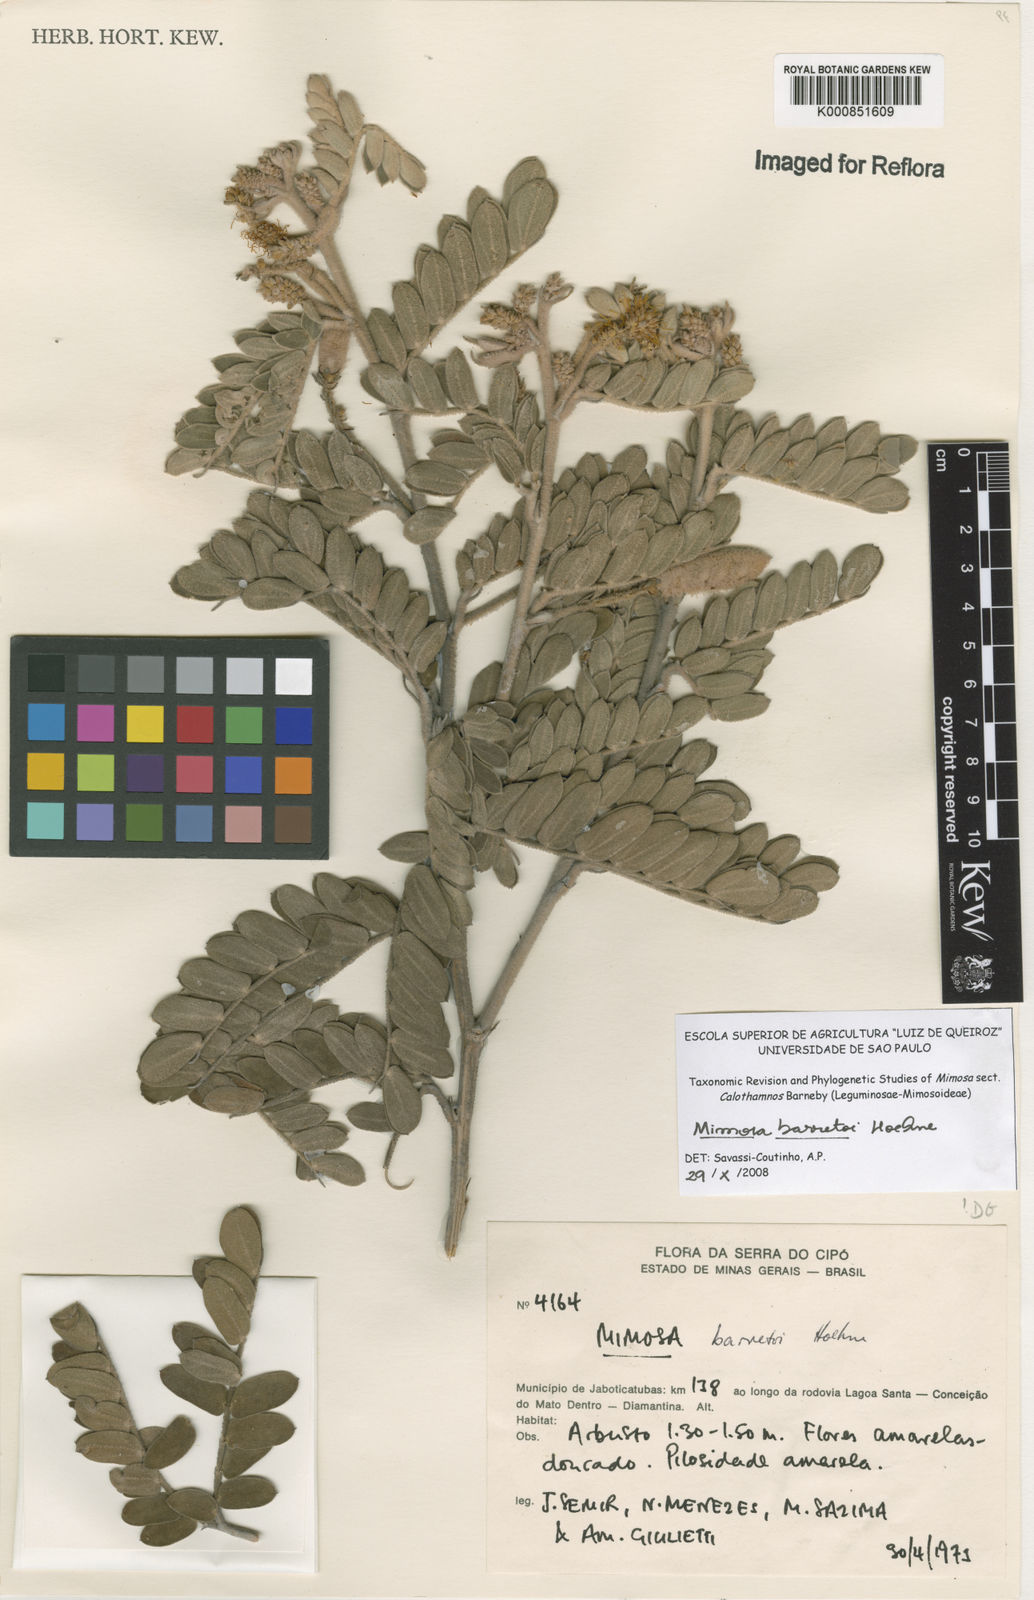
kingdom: Plantae
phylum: Tracheophyta
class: Magnoliopsida
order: Fabales
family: Fabaceae
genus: Mimosa
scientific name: Mimosa barretoi
